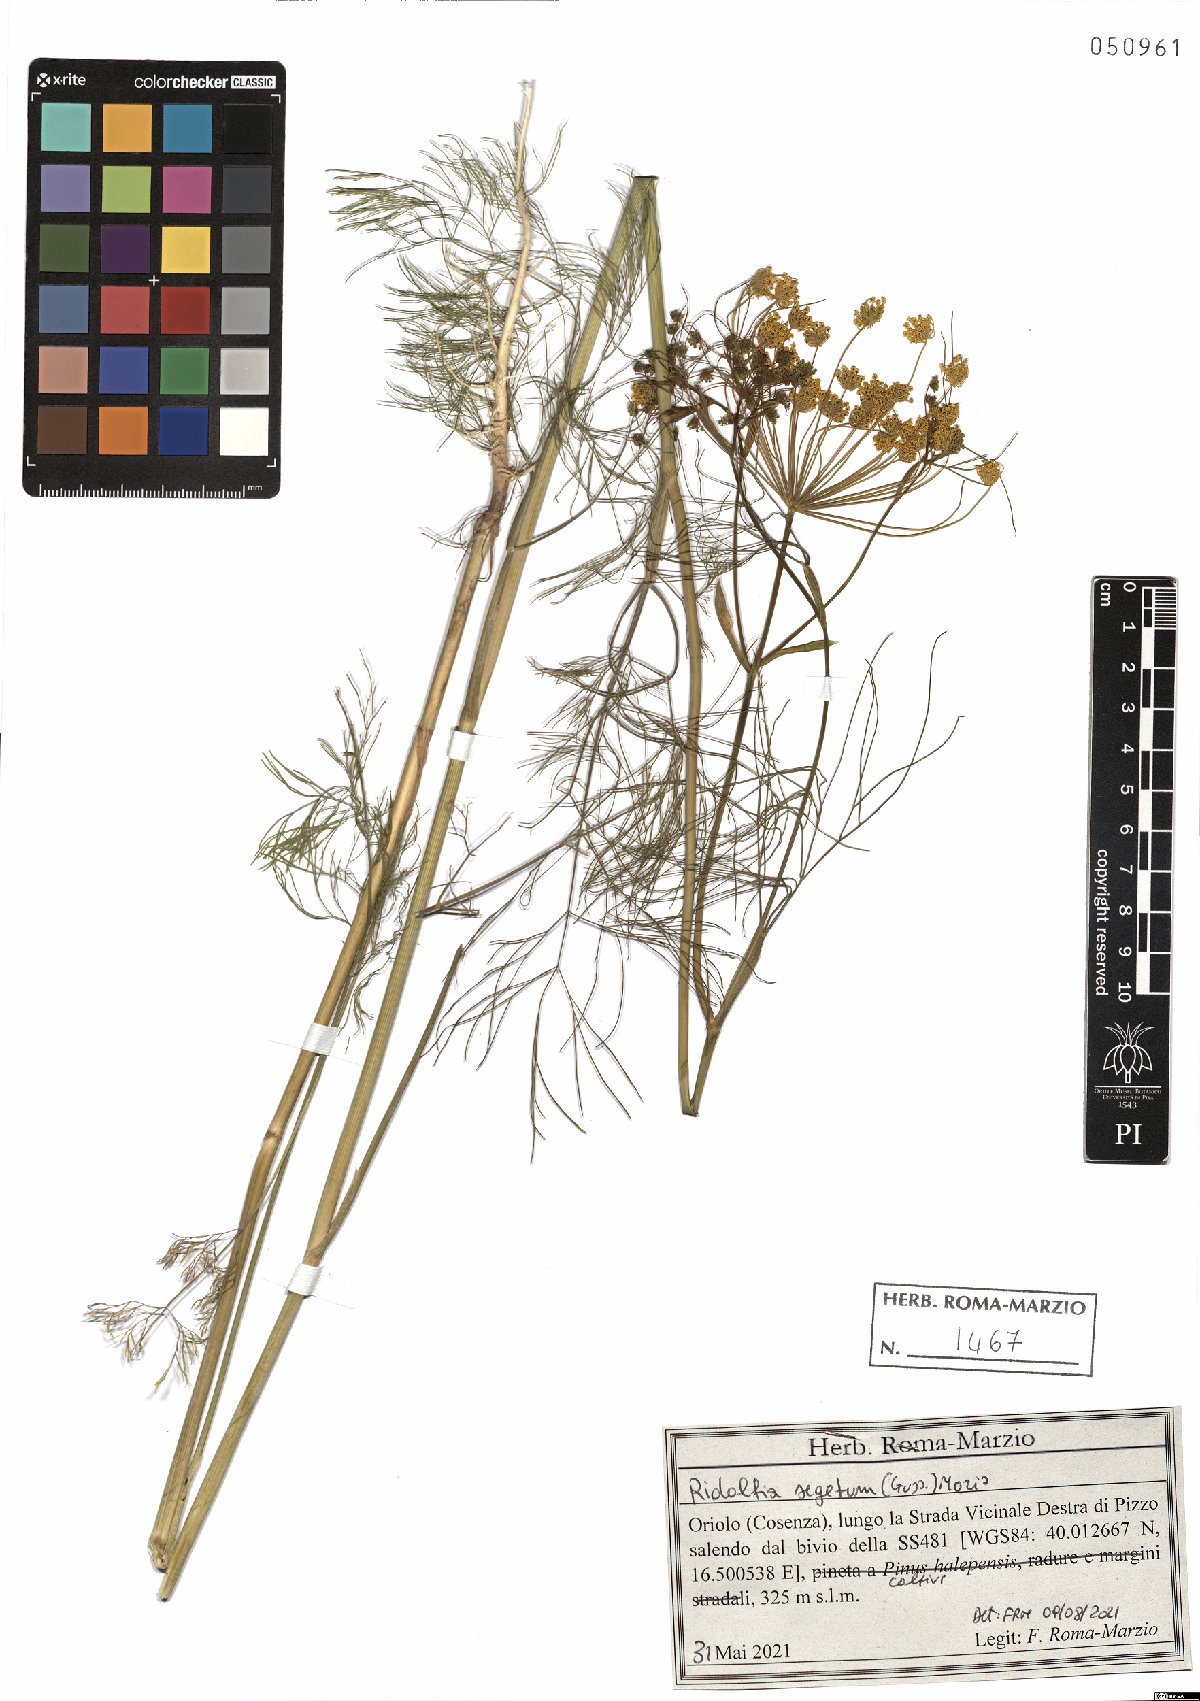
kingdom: Plantae
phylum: Tracheophyta
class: Magnoliopsida
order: Apiales
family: Apiaceae
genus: Anethum
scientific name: Anethum ridolfia
